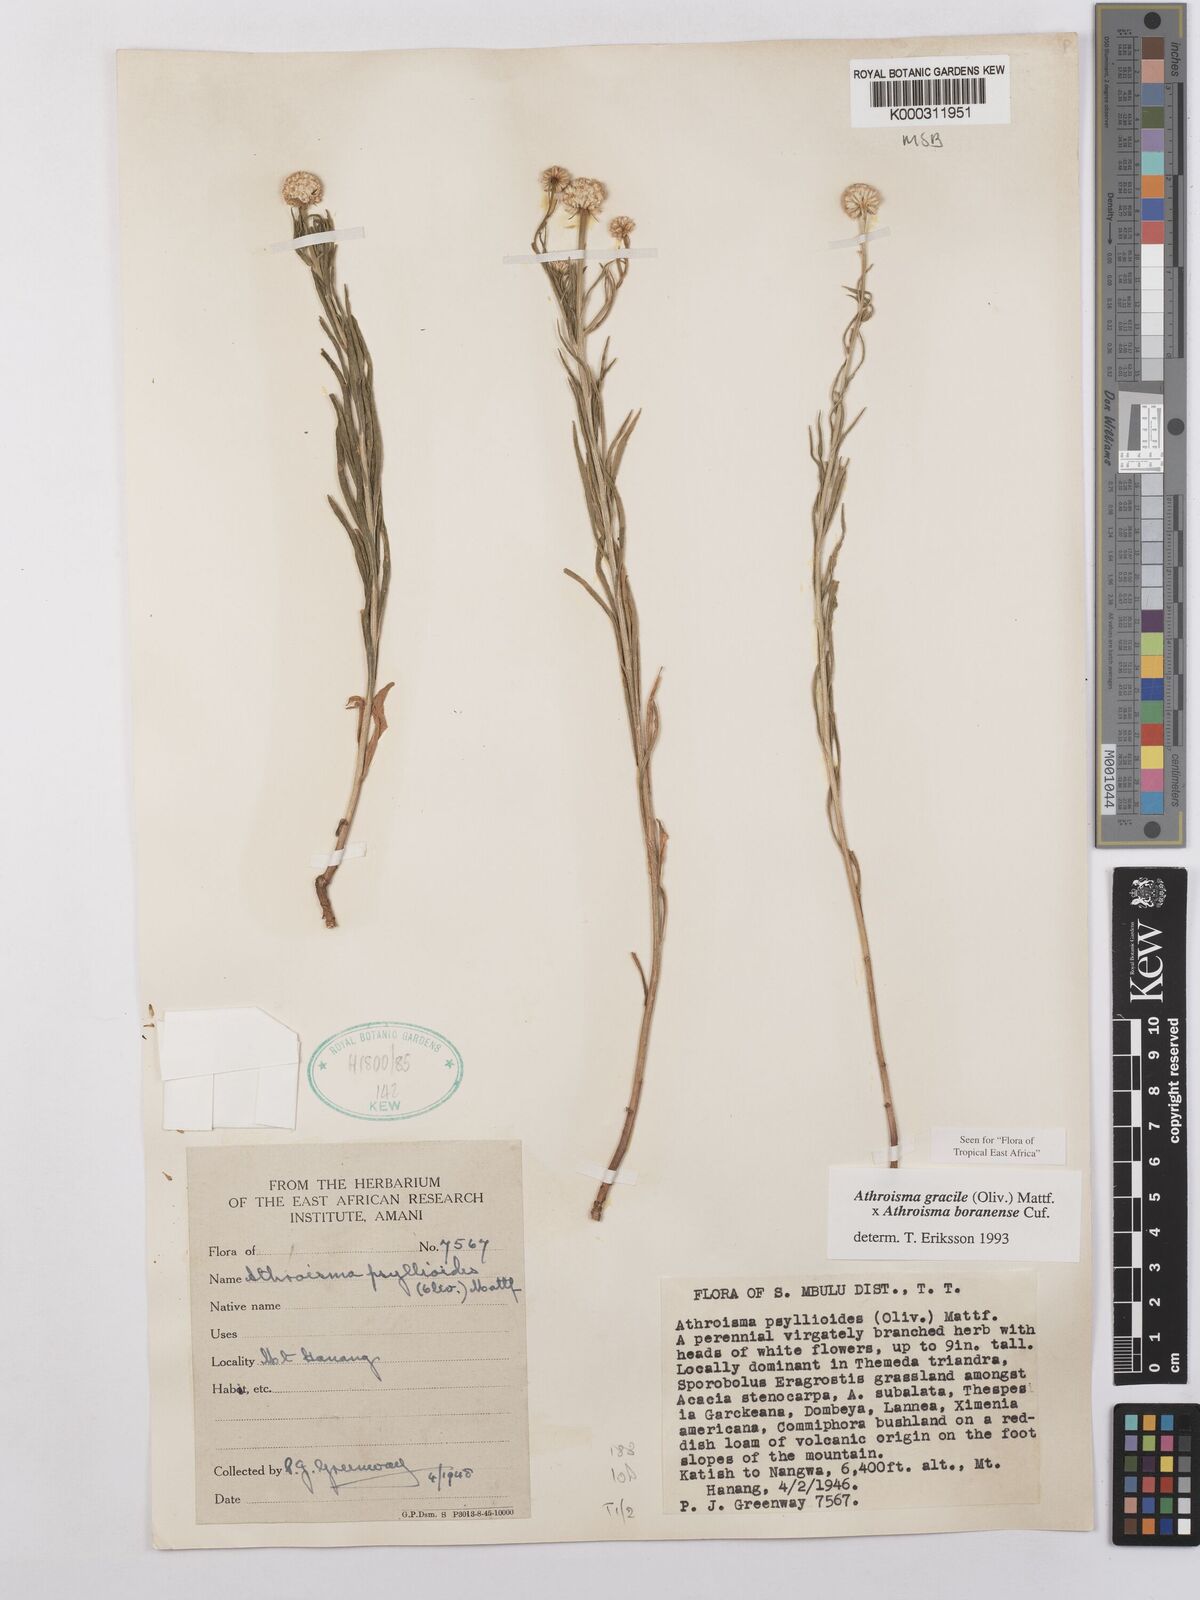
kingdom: Plantae
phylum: Tracheophyta
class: Magnoliopsida
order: Asterales
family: Asteraceae
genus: Athroisma
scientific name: Athroisma
